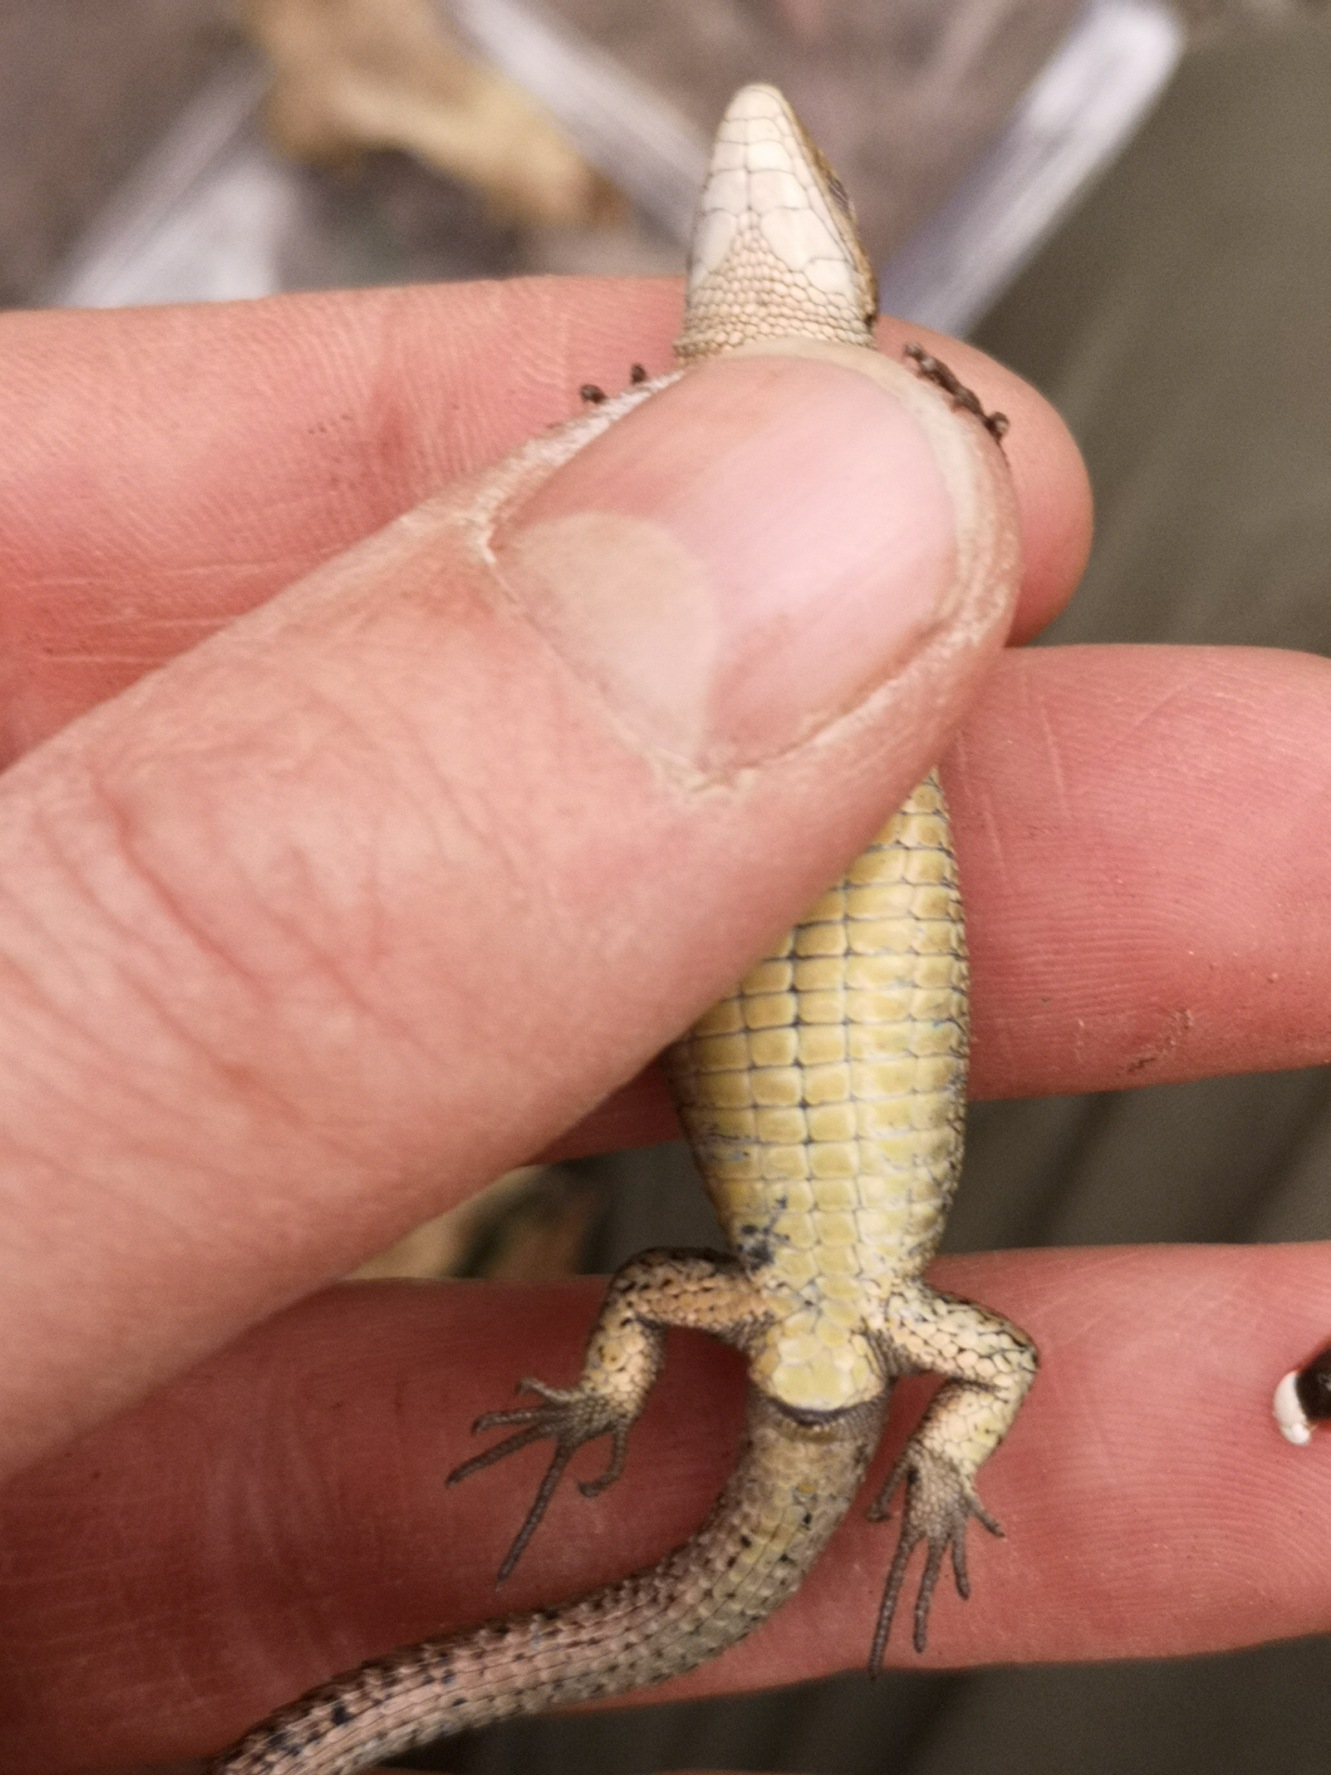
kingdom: Animalia
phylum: Chordata
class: Squamata
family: Lacertidae
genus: Zootoca
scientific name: Zootoca vivipara
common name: Skovfirben
